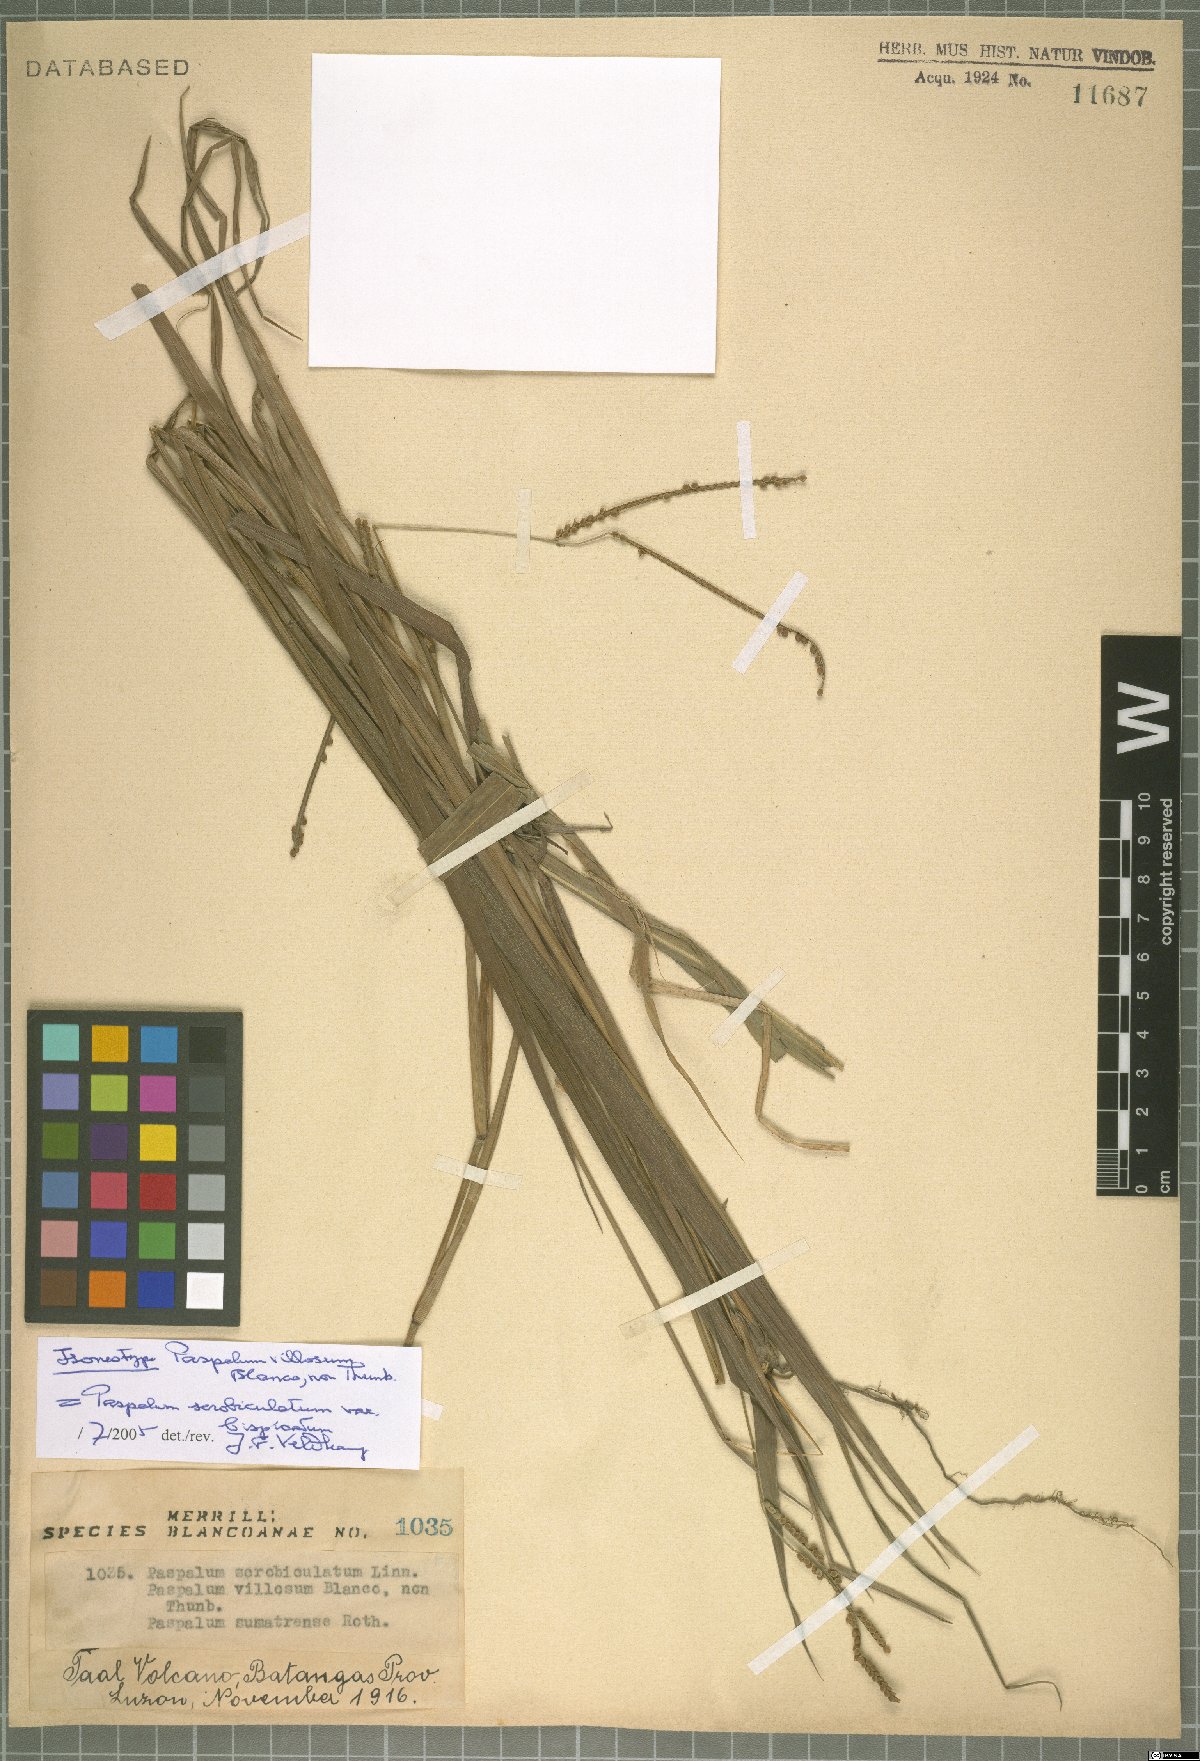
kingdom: Plantae
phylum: Tracheophyta
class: Liliopsida
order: Poales
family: Poaceae
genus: Paspalum
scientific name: Paspalum scrobiculatum
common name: Kodo millet
